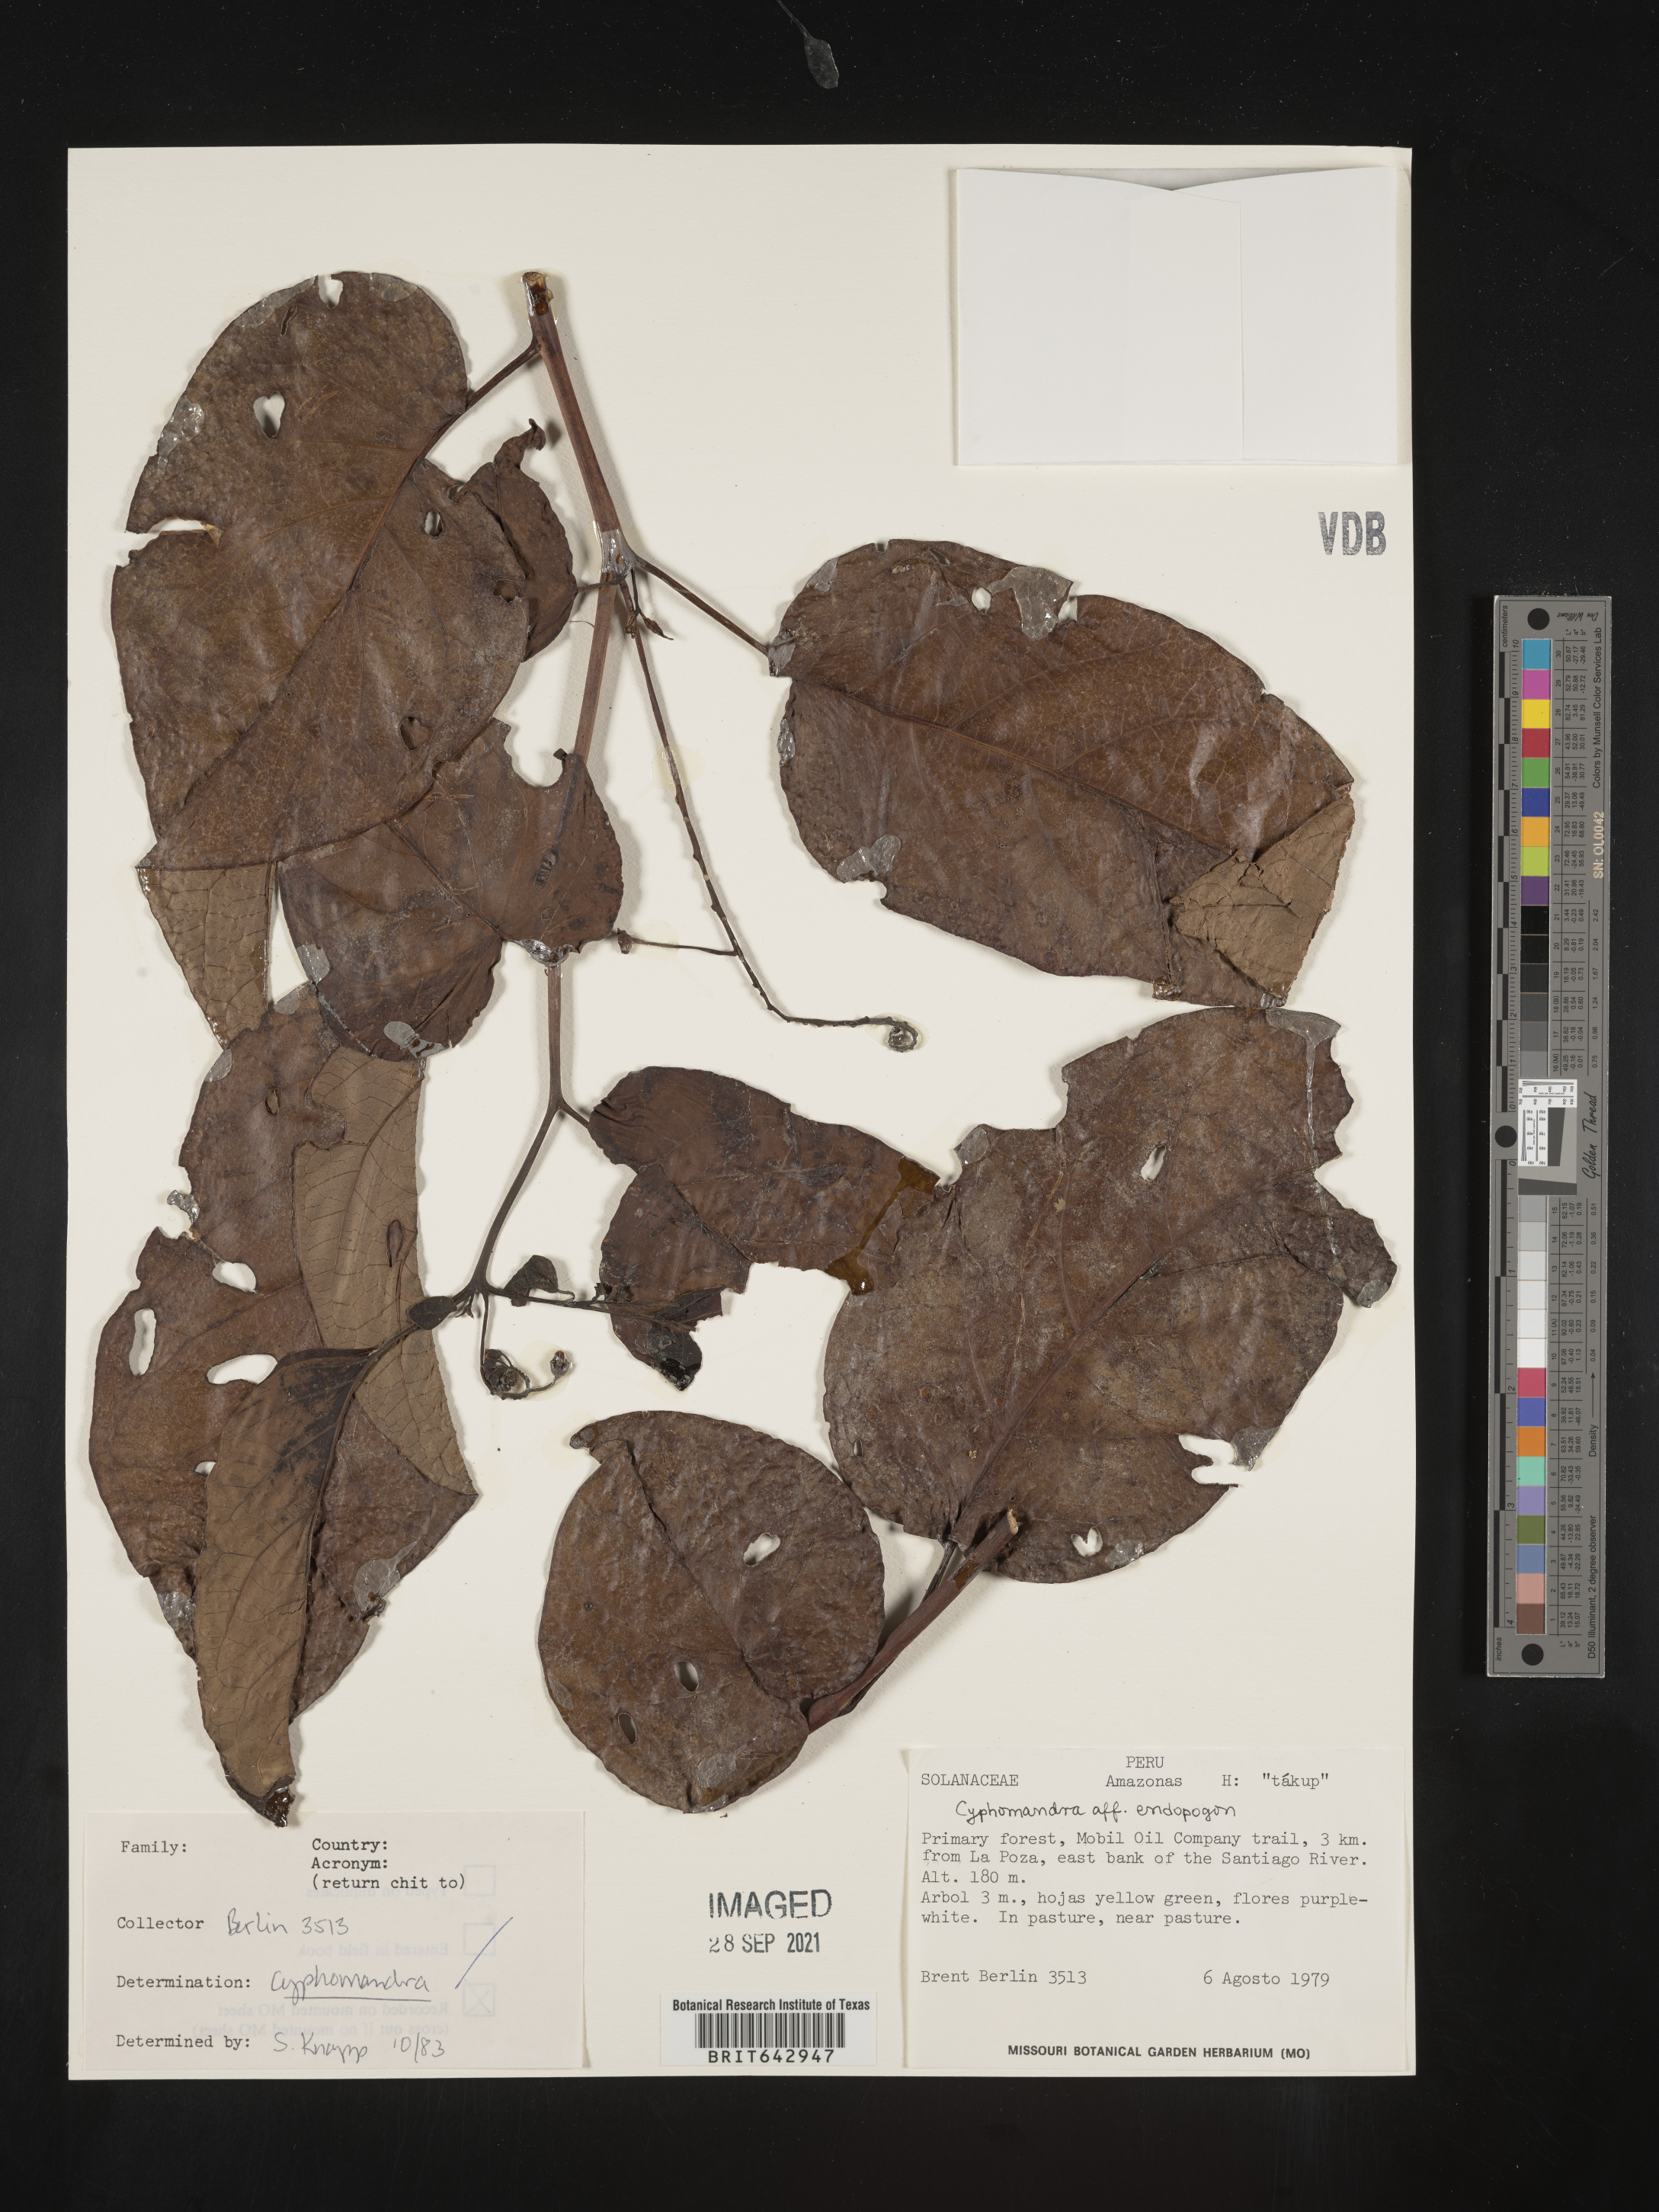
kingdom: Plantae
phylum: Tracheophyta
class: Magnoliopsida
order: Solanales
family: Solanaceae
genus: Solanum
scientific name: Solanum
